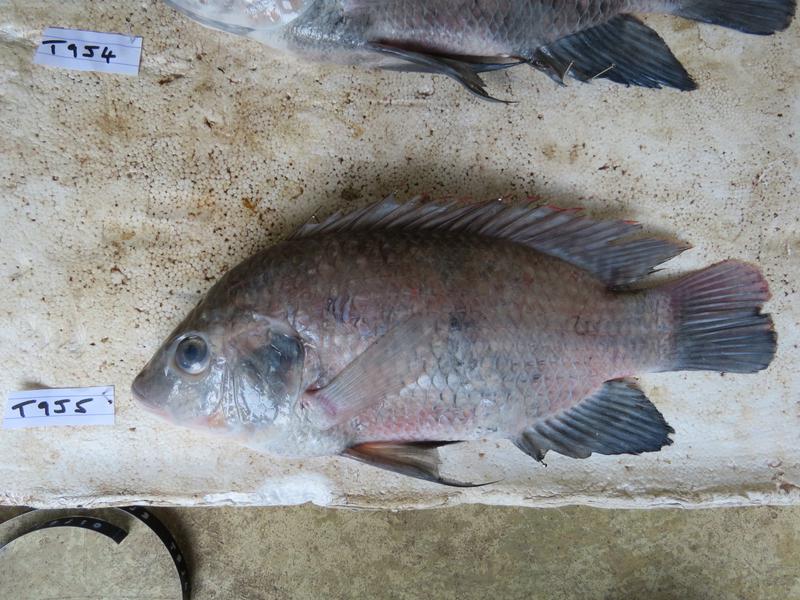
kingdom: Animalia
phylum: Chordata
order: Perciformes
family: Cichlidae
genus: Oreochromis
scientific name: Oreochromis urolepis
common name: Wami tilapia
